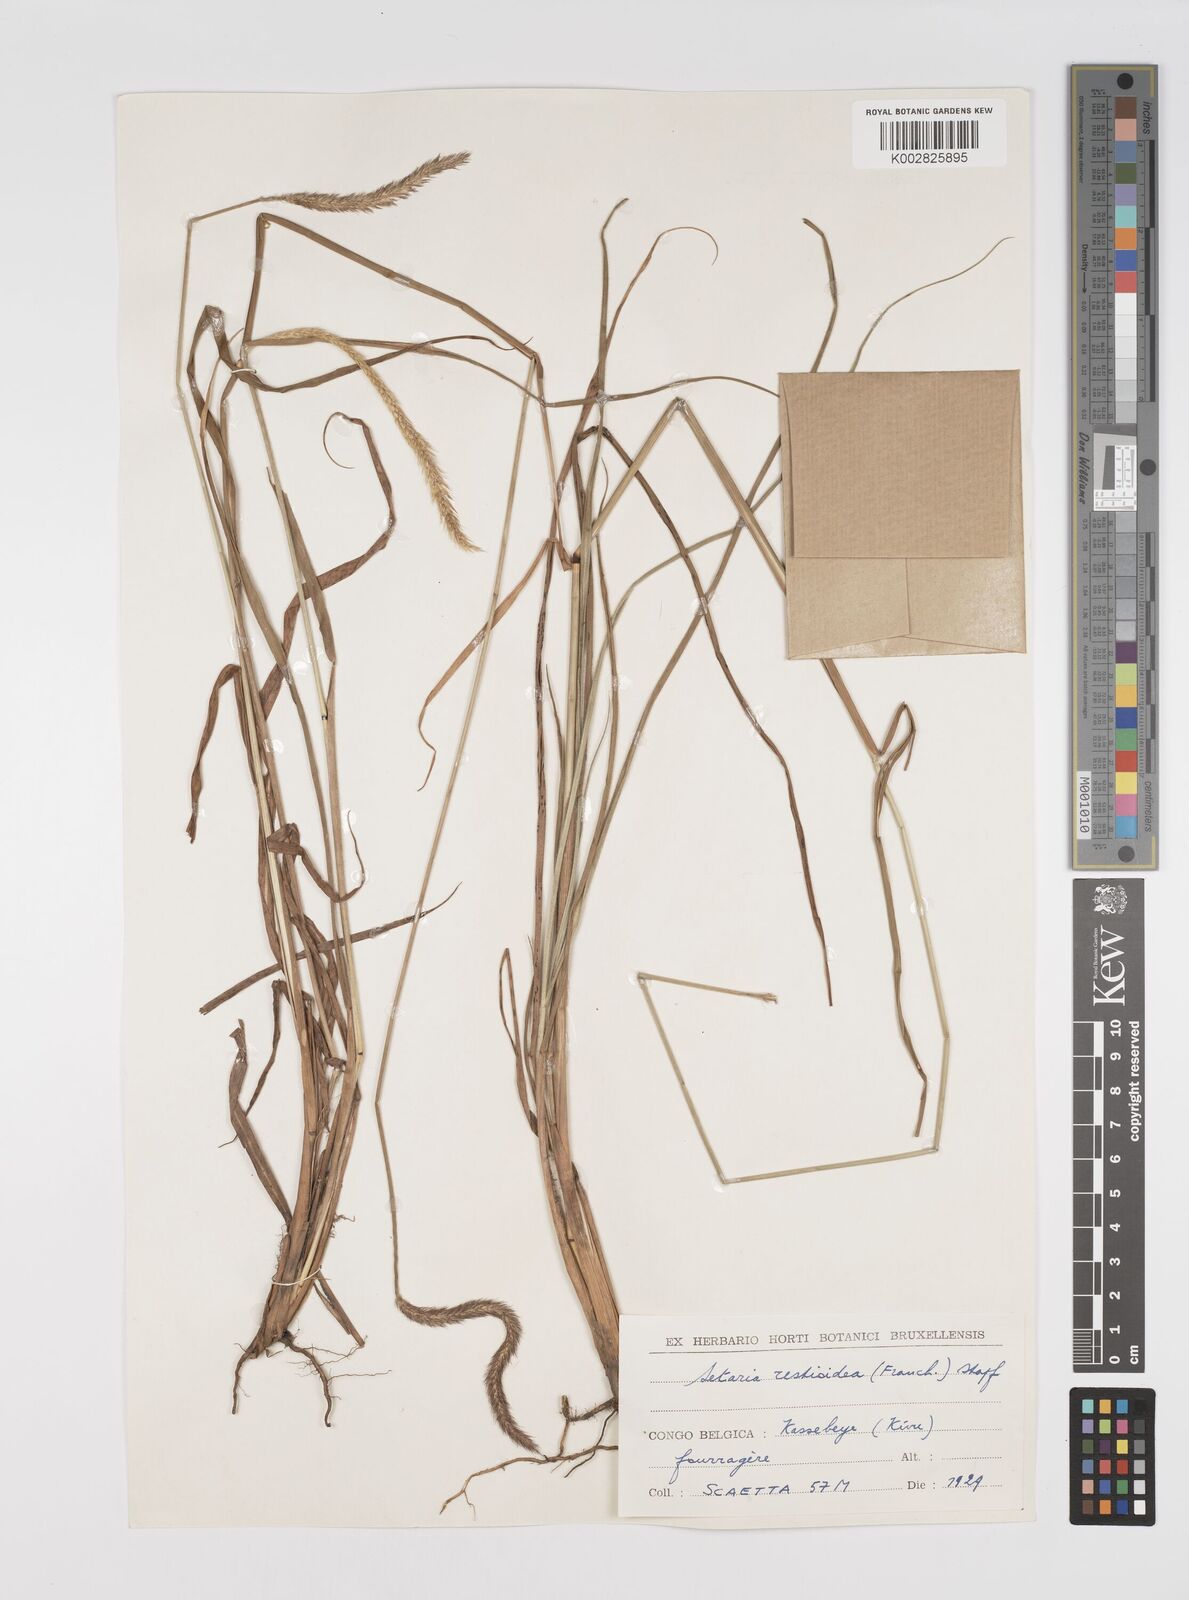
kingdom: Plantae
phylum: Tracheophyta
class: Liliopsida
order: Poales
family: Poaceae
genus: Setaria
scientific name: Setaria restioidea
